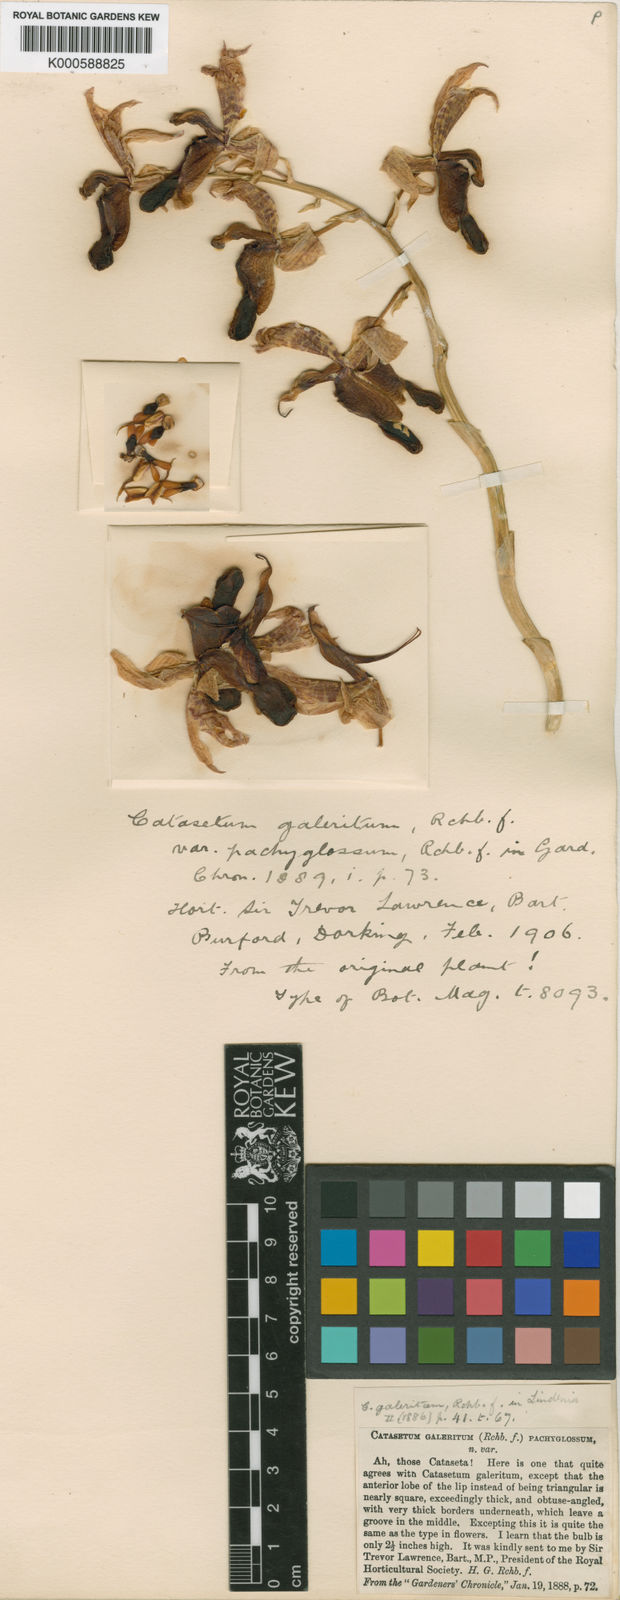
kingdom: Plantae
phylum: Tracheophyta
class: Liliopsida
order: Asparagales
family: Orchidaceae
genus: Catasetum
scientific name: Catasetum galeritum
